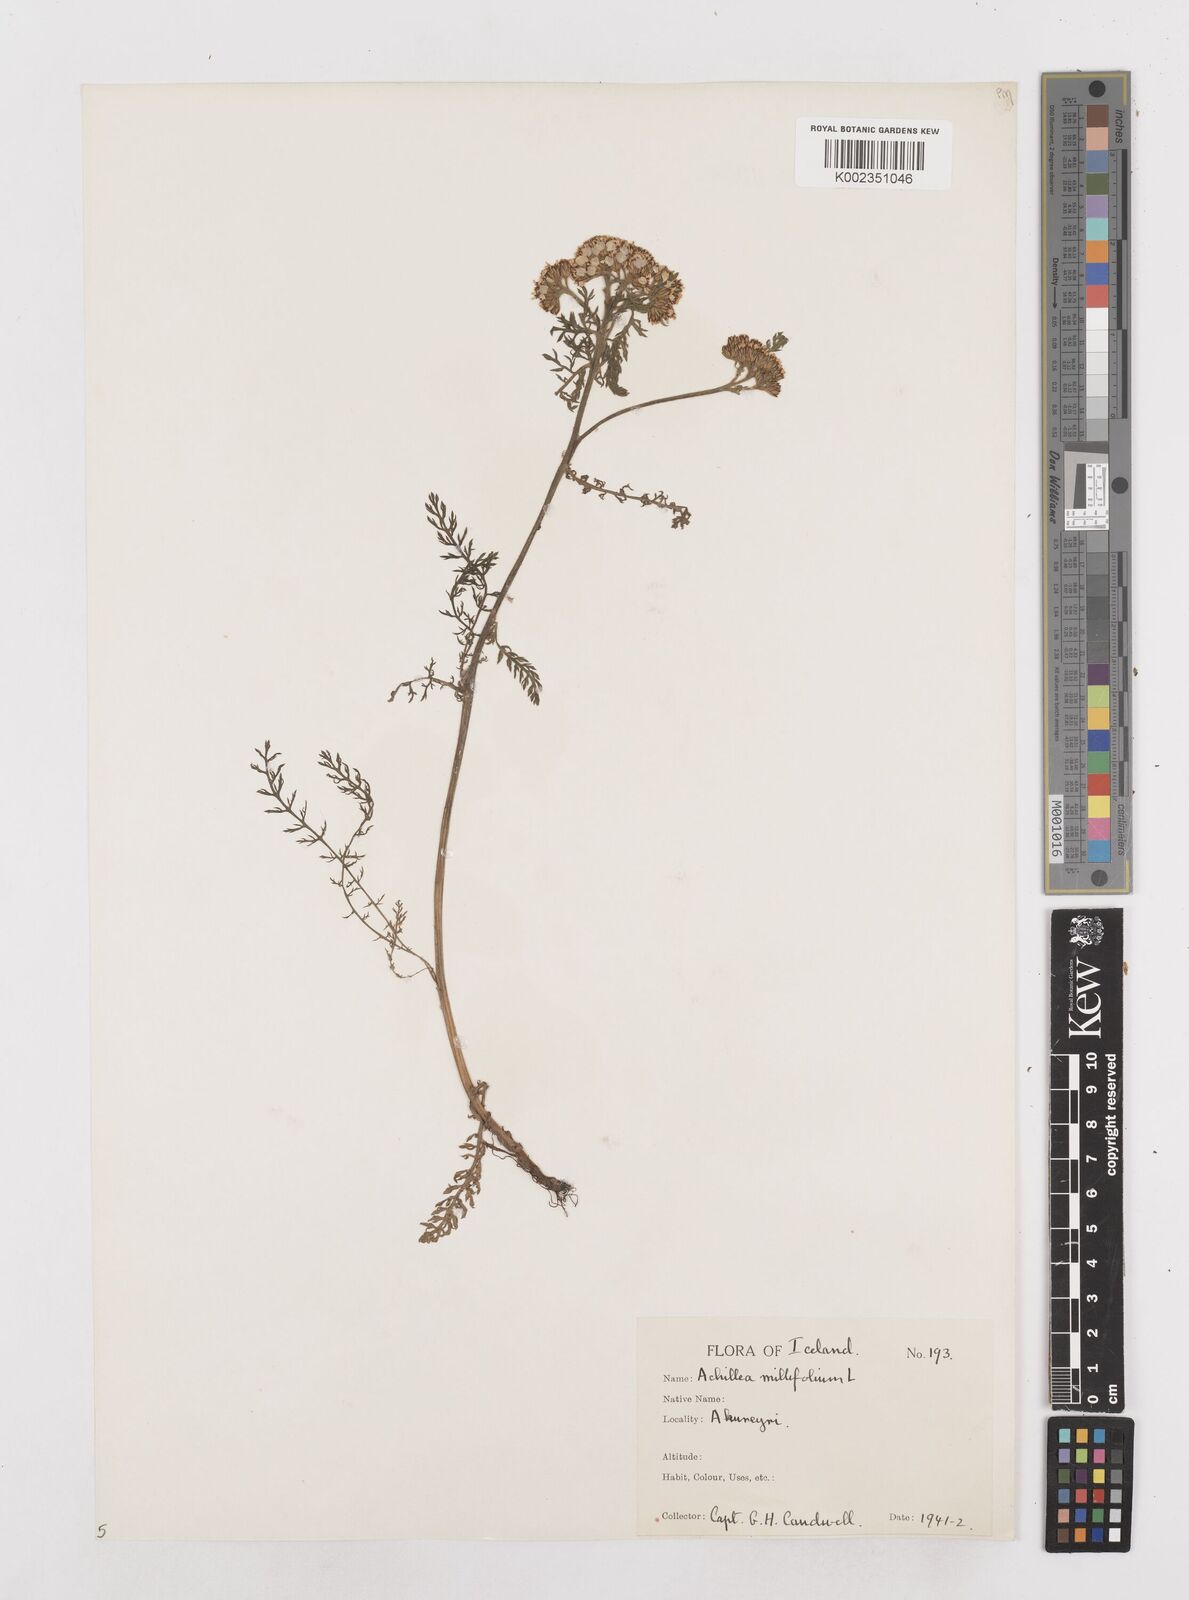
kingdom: Plantae
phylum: Tracheophyta
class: Magnoliopsida
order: Asterales
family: Asteraceae
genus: Achillea
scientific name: Achillea millefolium
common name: Yarrow
